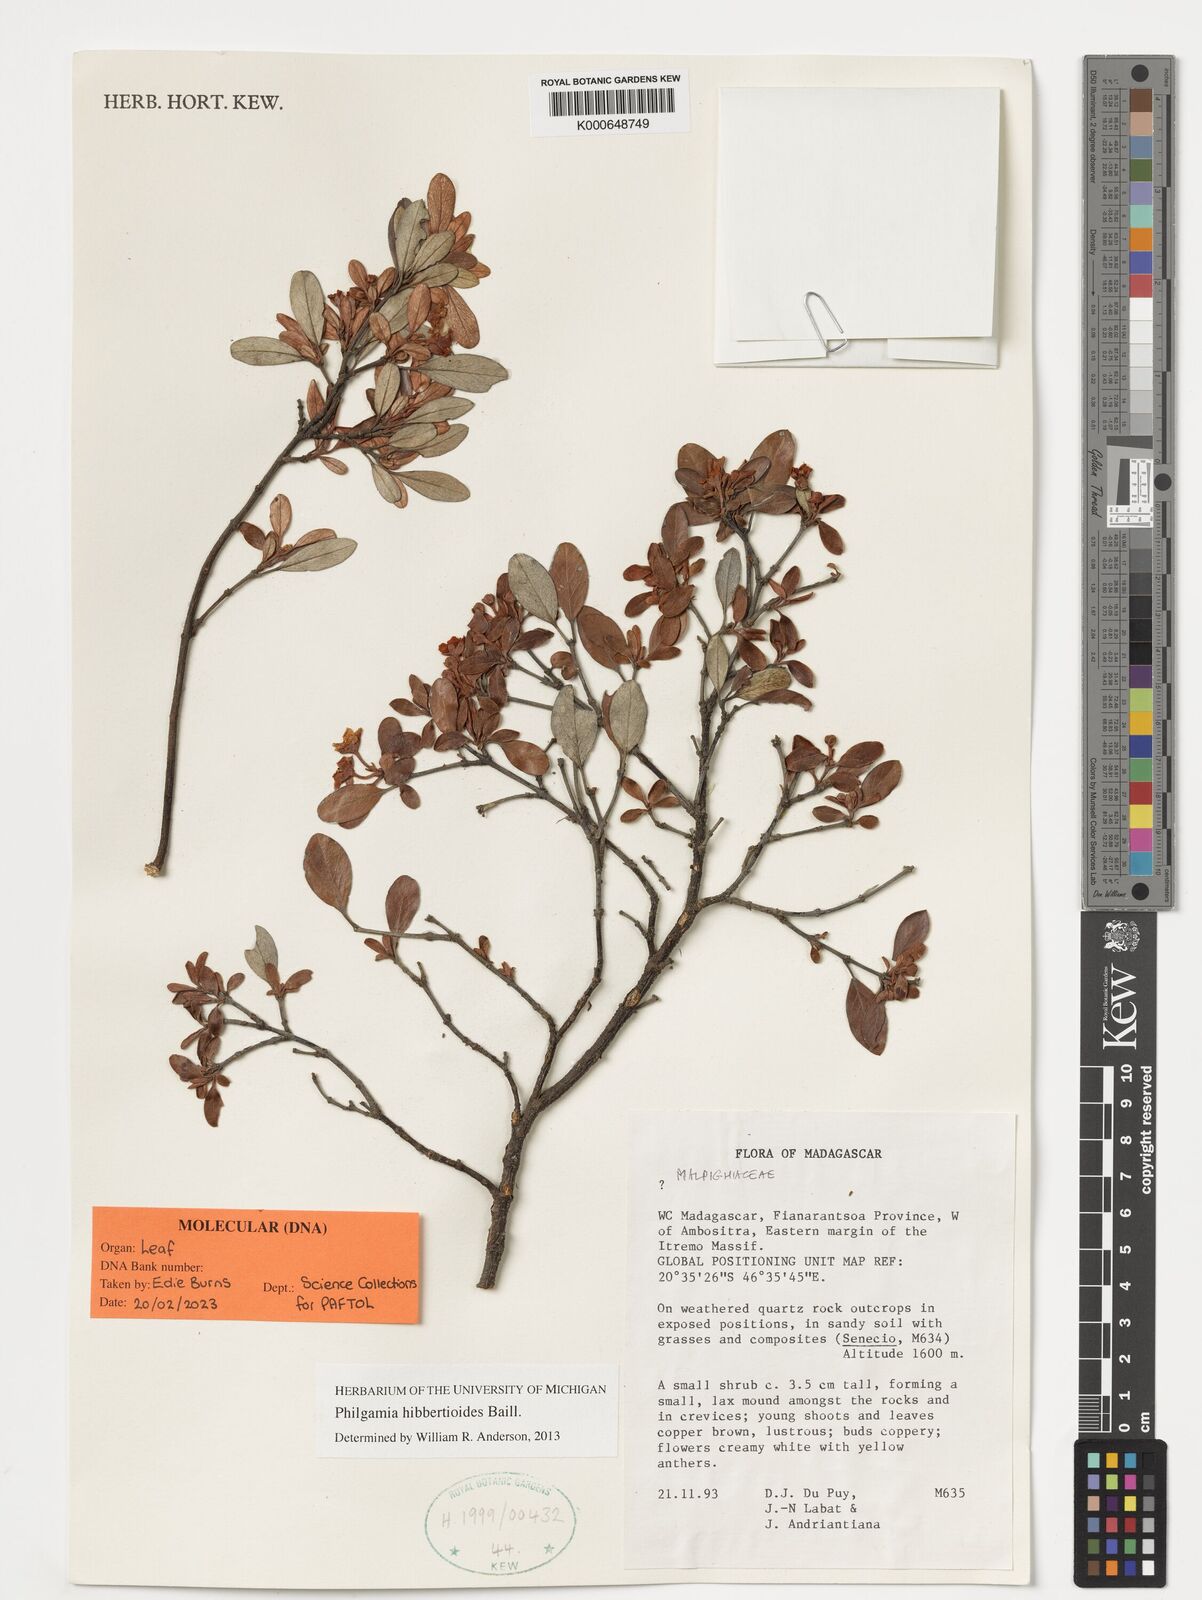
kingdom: Plantae
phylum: Tracheophyta
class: Magnoliopsida
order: Malpighiales
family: Malpighiaceae
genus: Philgamia
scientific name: Philgamia hibbertioides
